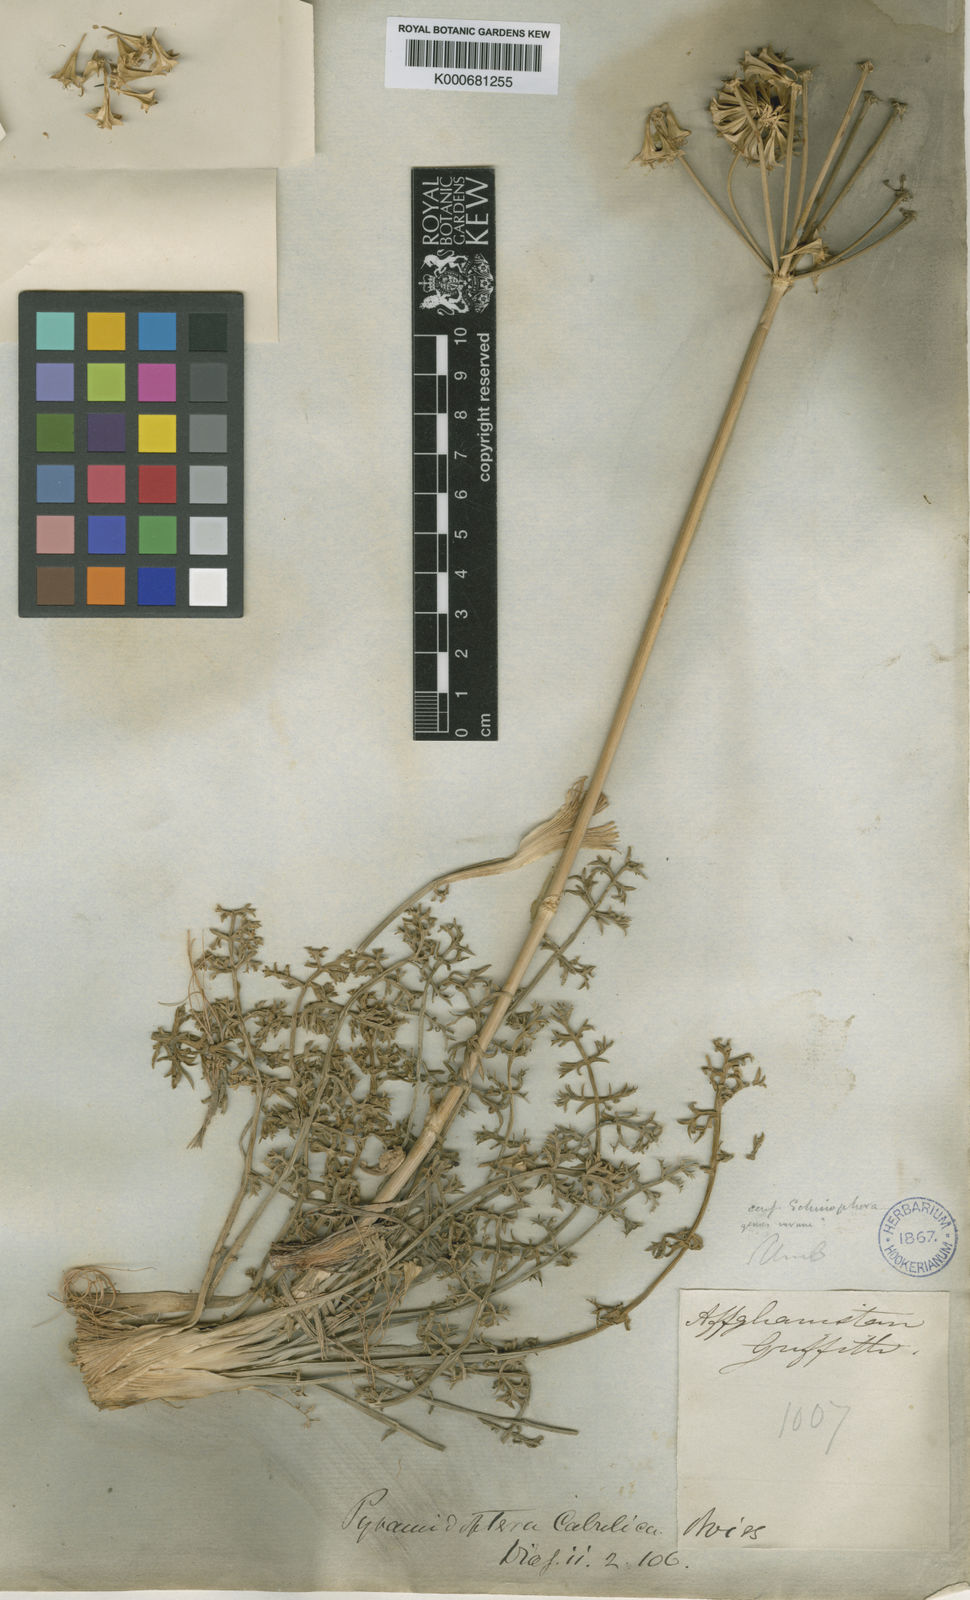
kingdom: Plantae
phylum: Tracheophyta
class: Magnoliopsida
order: Apiales
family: Apiaceae
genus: Pyramidoptera
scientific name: Pyramidoptera cabulica
